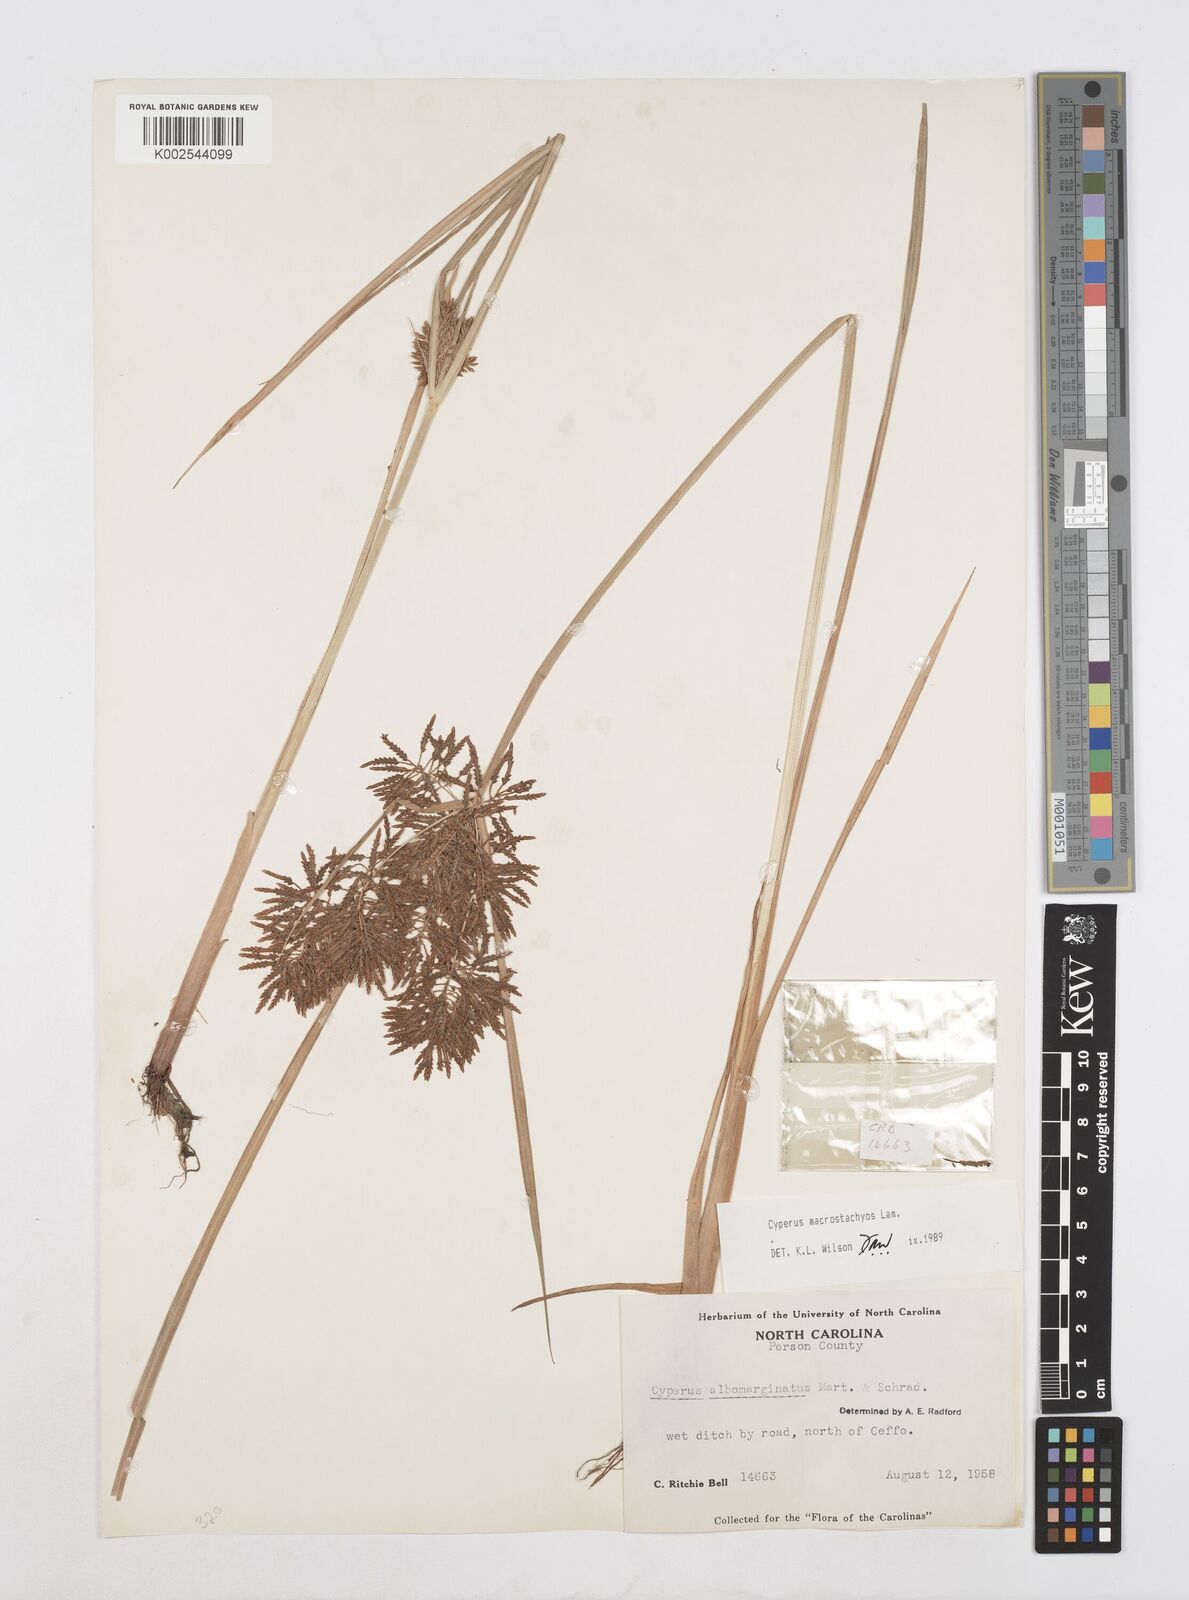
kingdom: Plantae
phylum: Tracheophyta
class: Liliopsida
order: Poales
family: Cyperaceae
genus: Cyperus
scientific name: Cyperus macrostachyos
